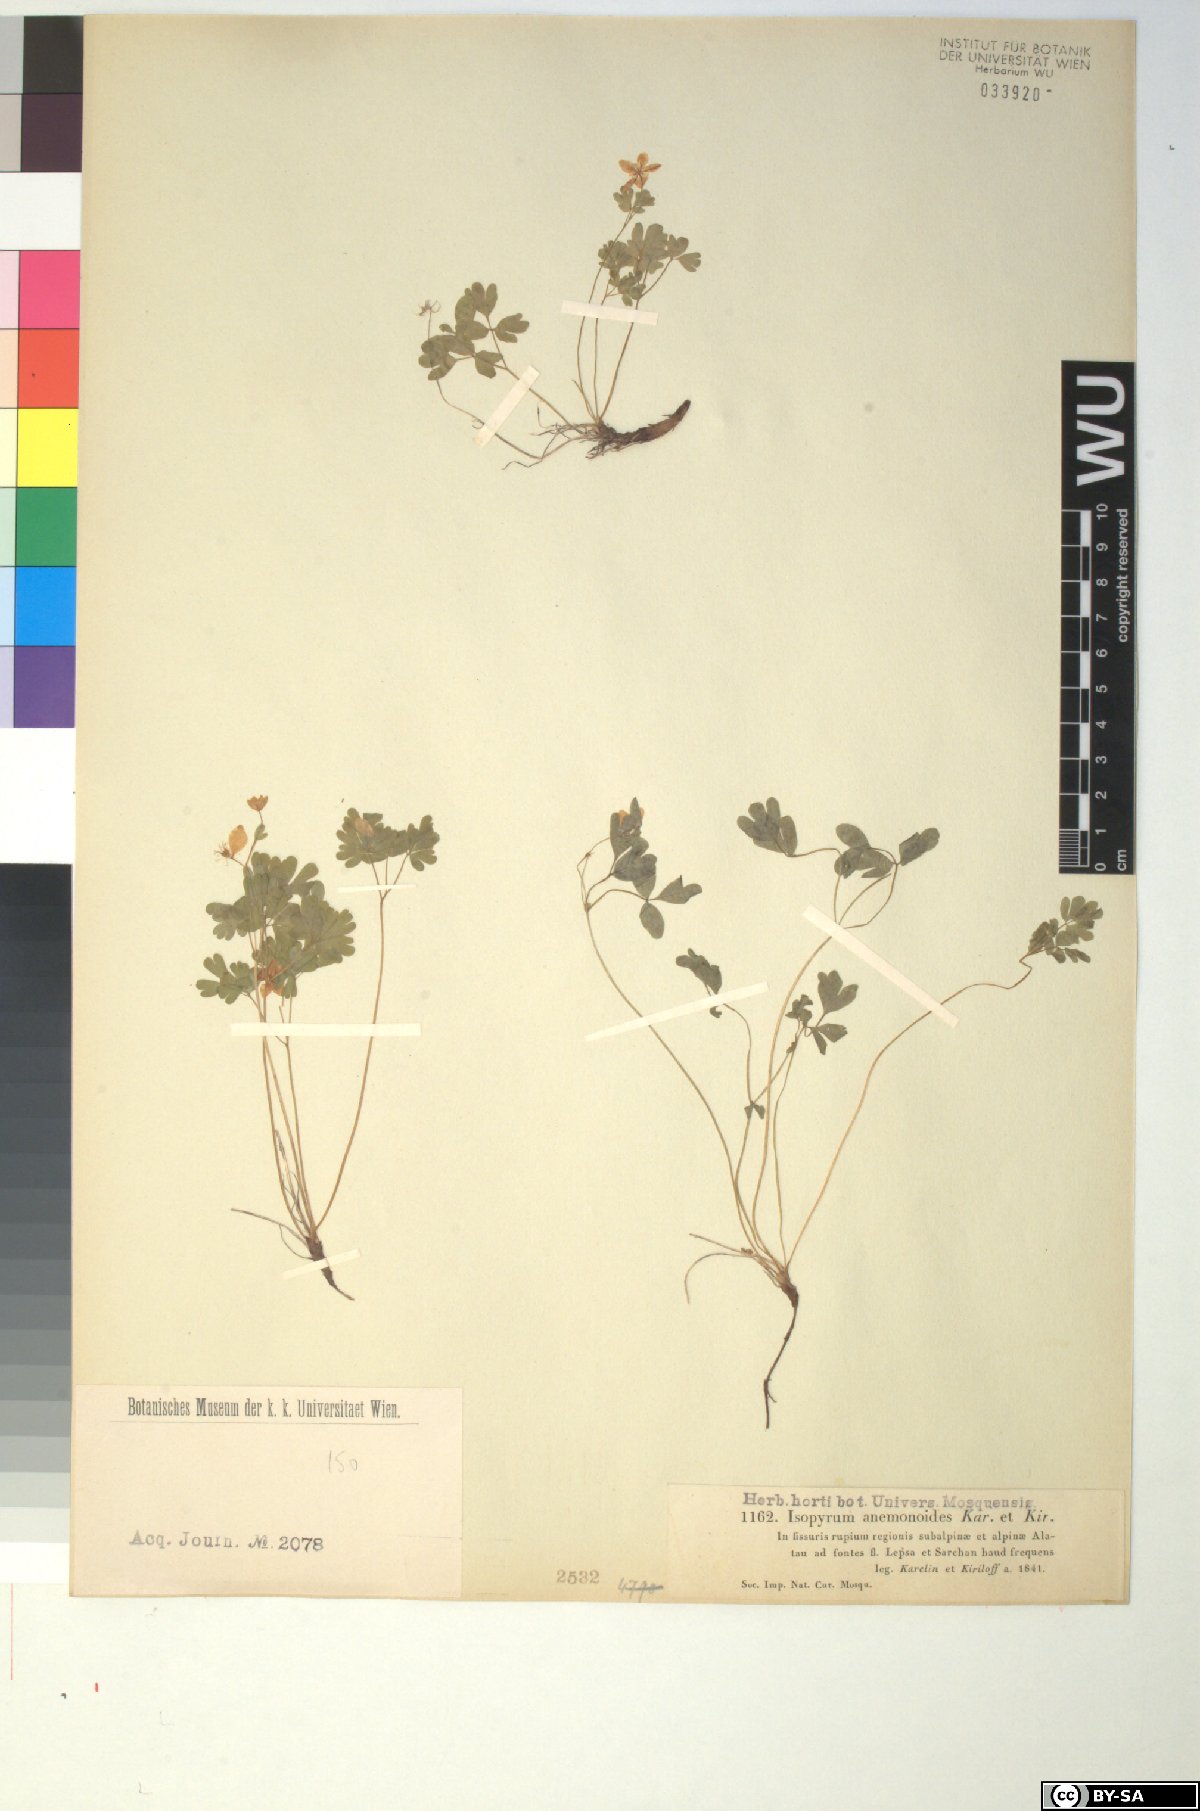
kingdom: Plantae
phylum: Tracheophyta
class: Magnoliopsida
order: Ranunculales
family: Ranunculaceae
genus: Isopyrum
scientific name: Isopyrum anemonoides
